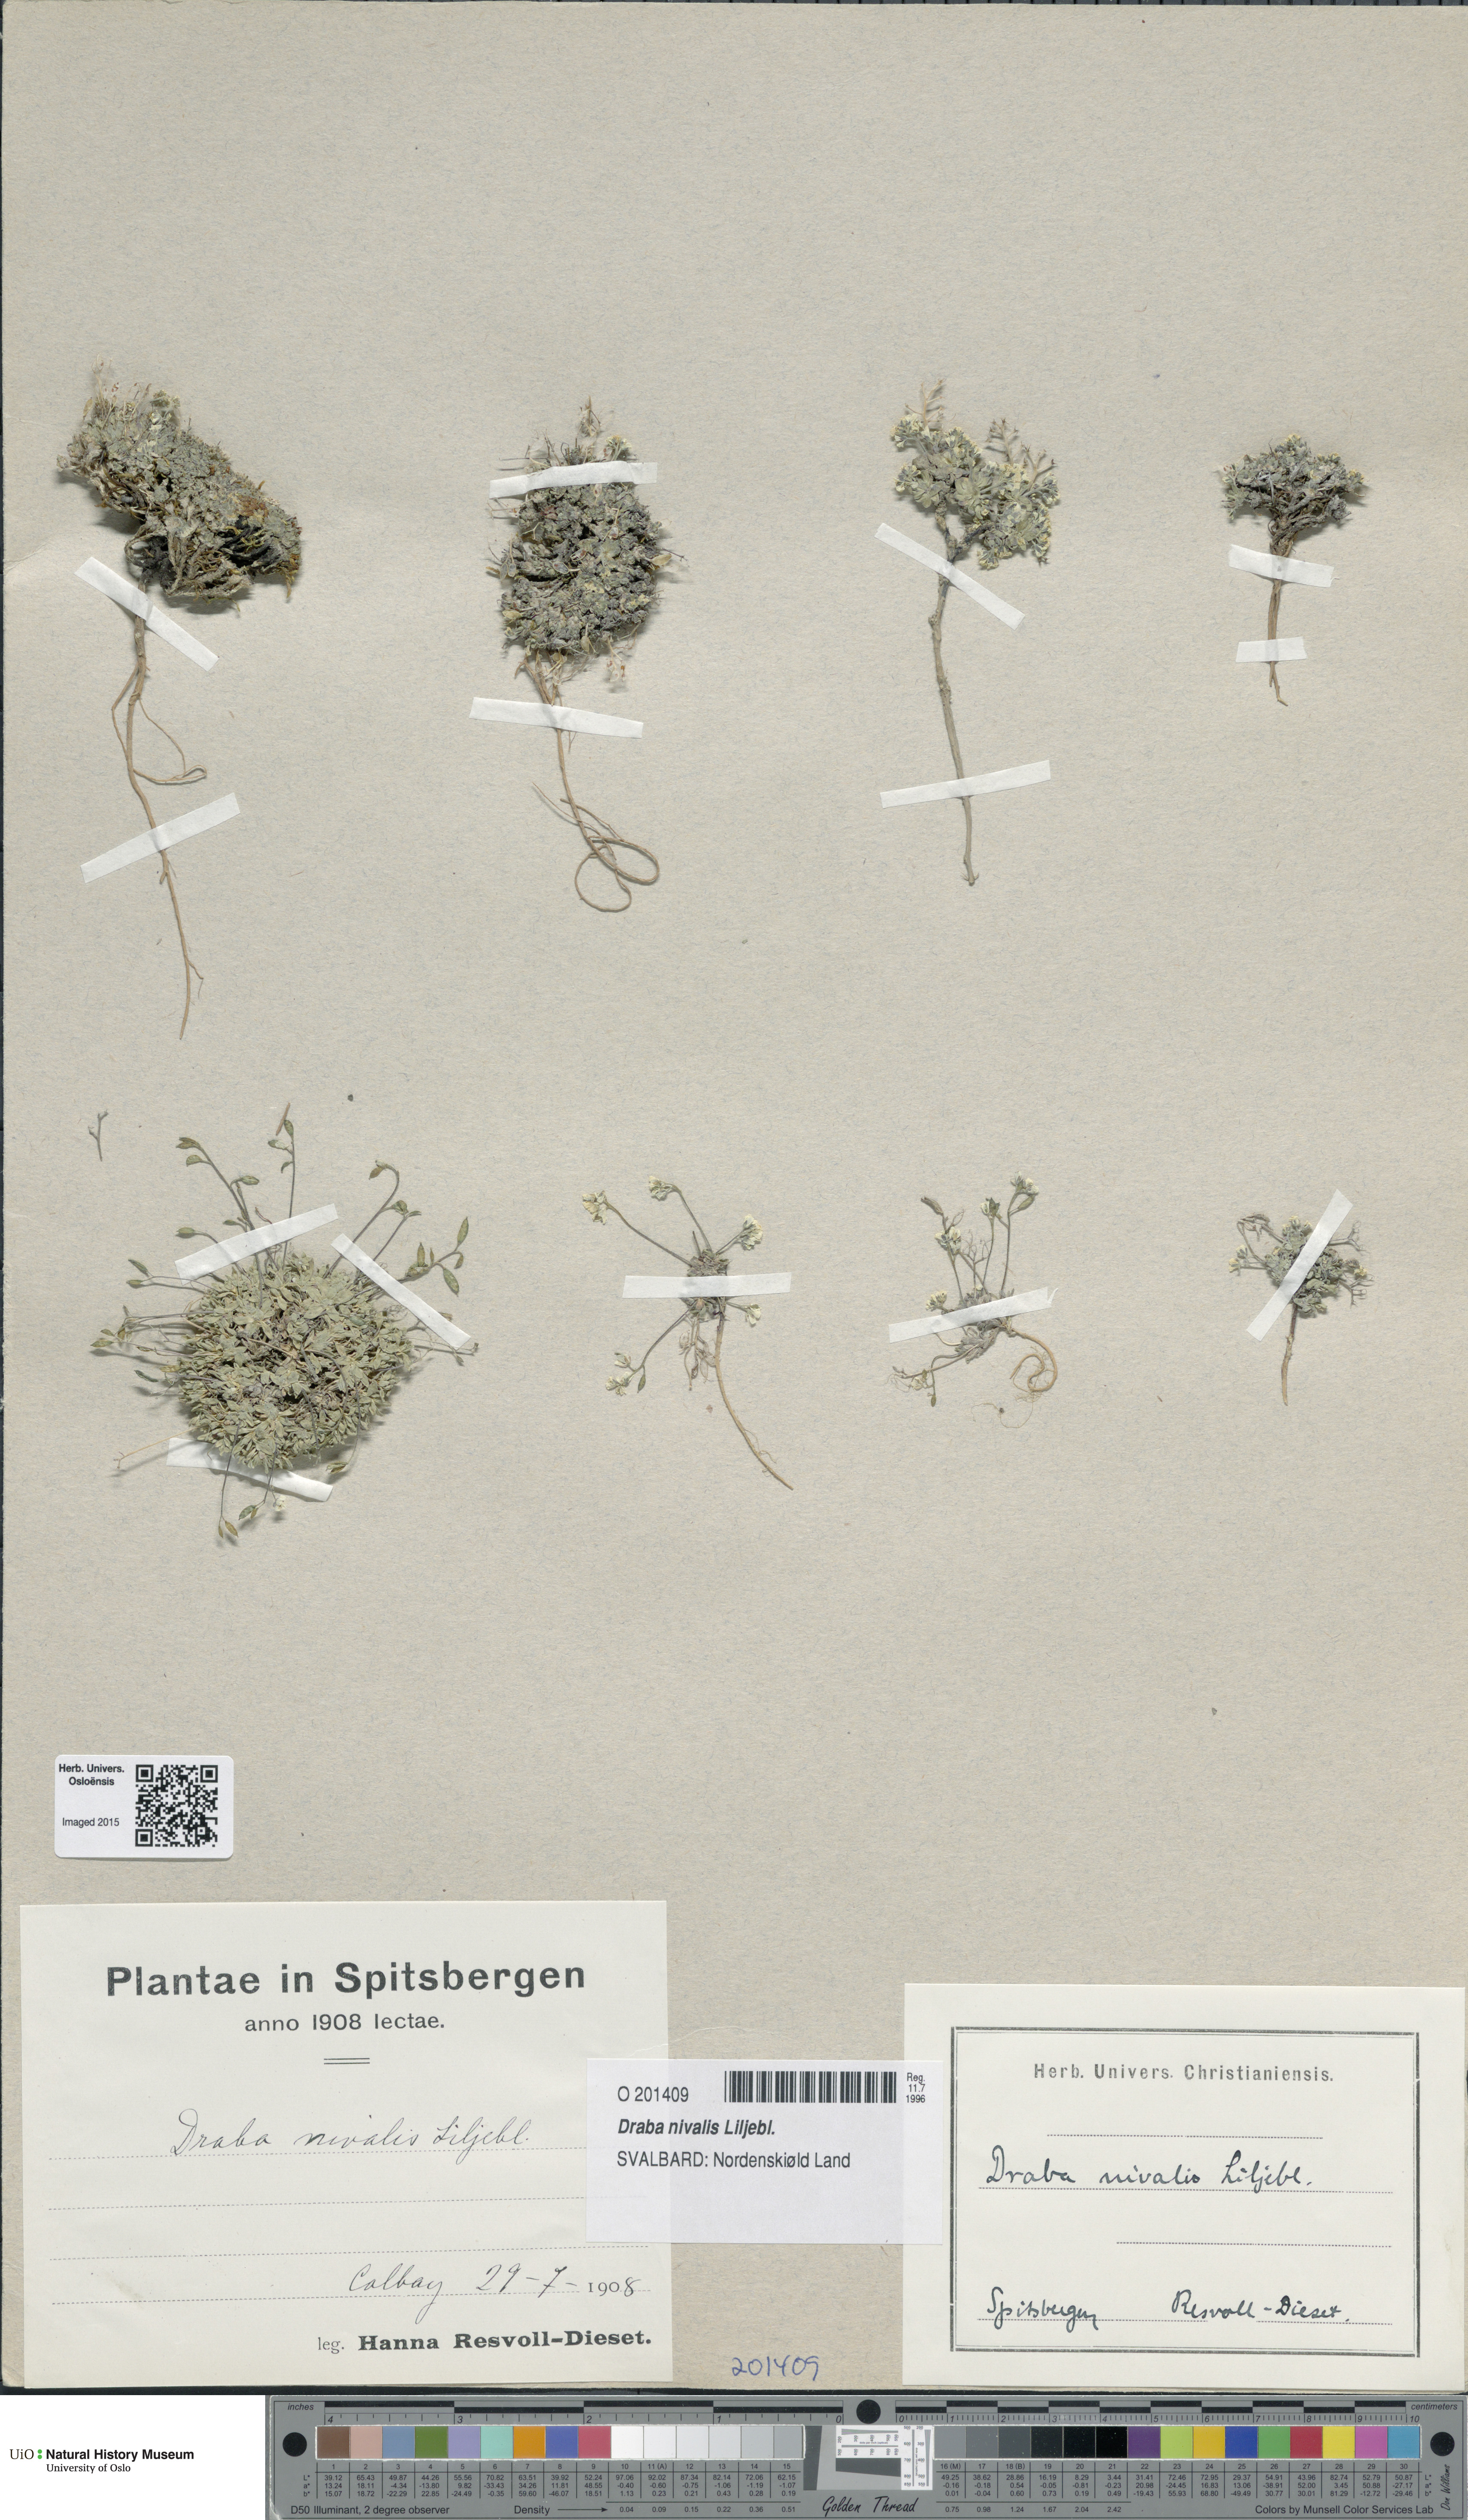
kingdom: Plantae
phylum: Tracheophyta
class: Magnoliopsida
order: Brassicales
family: Brassicaceae
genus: Draba
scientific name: Draba nivalis
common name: Snow draba
